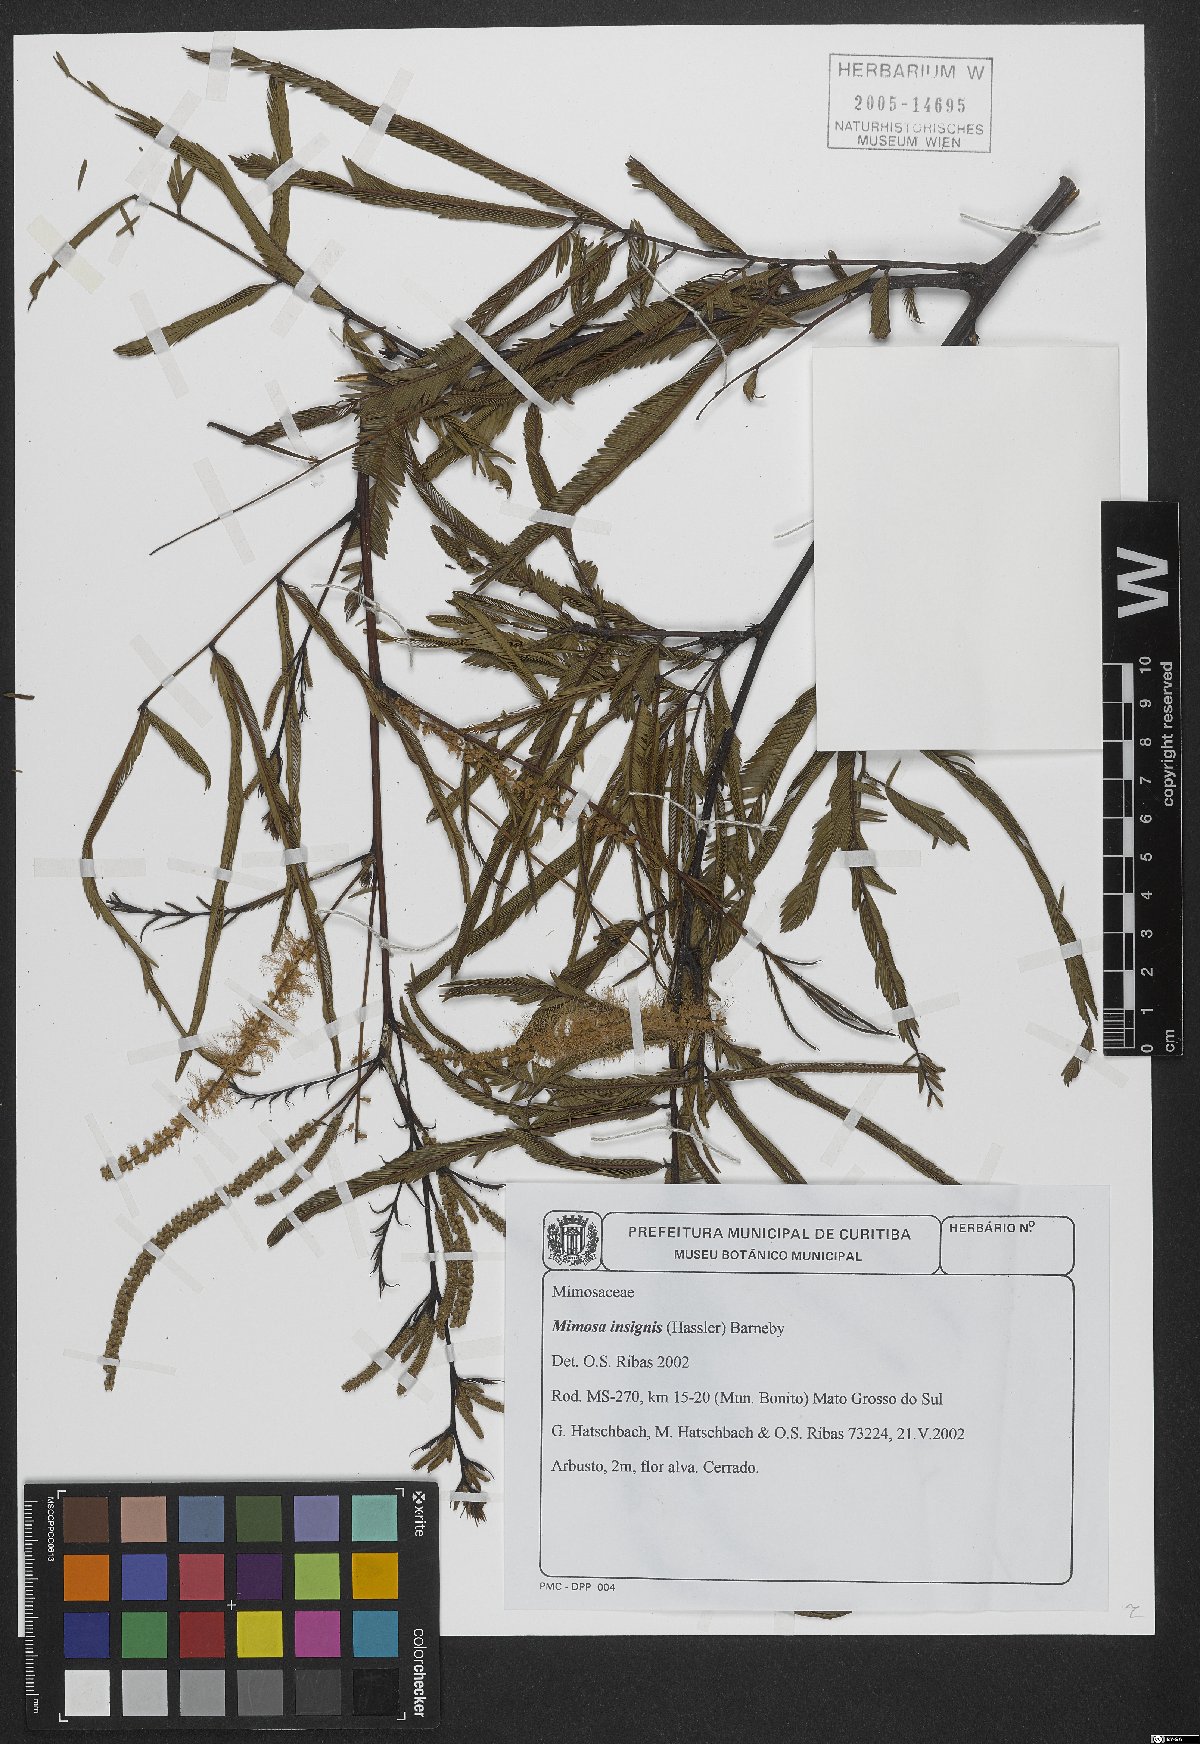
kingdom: Plantae
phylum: Tracheophyta
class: Magnoliopsida
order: Fabales
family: Fabaceae
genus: Mimosa
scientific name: Mimosa insignis
